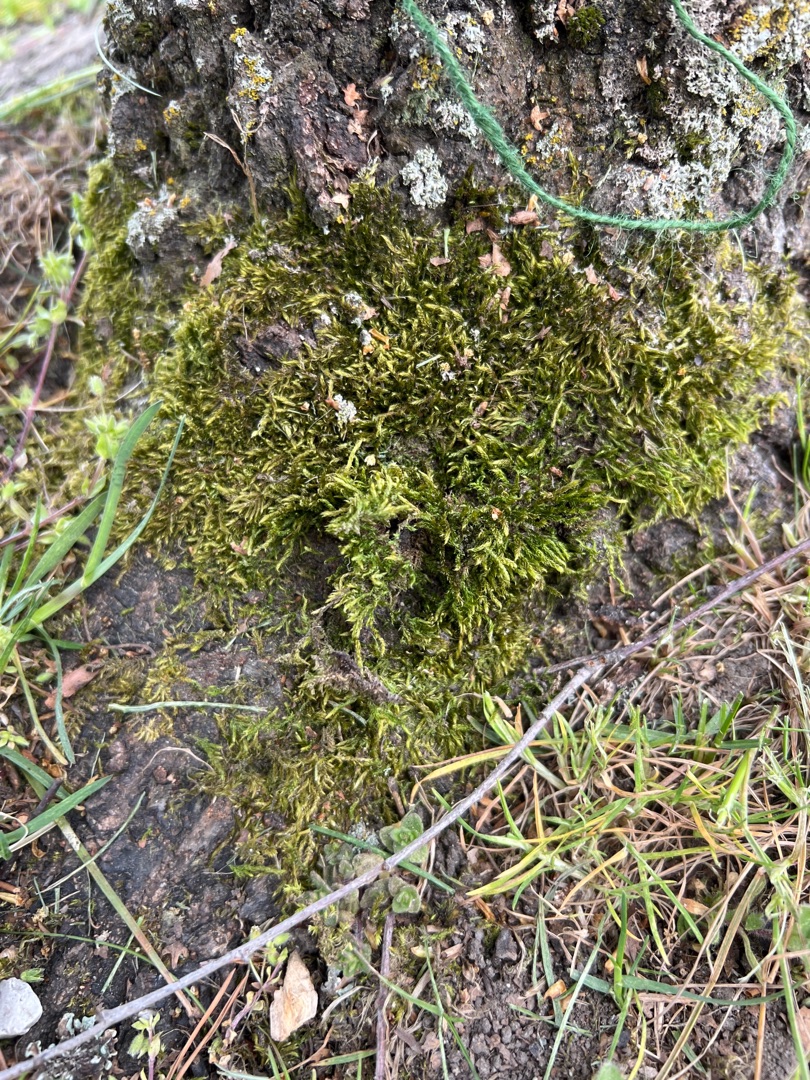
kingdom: Plantae
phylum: Bryophyta
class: Bryopsida
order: Hypnales
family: Hypnaceae
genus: Hypnum
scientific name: Hypnum cupressiforme
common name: Almindelig cypresmos
